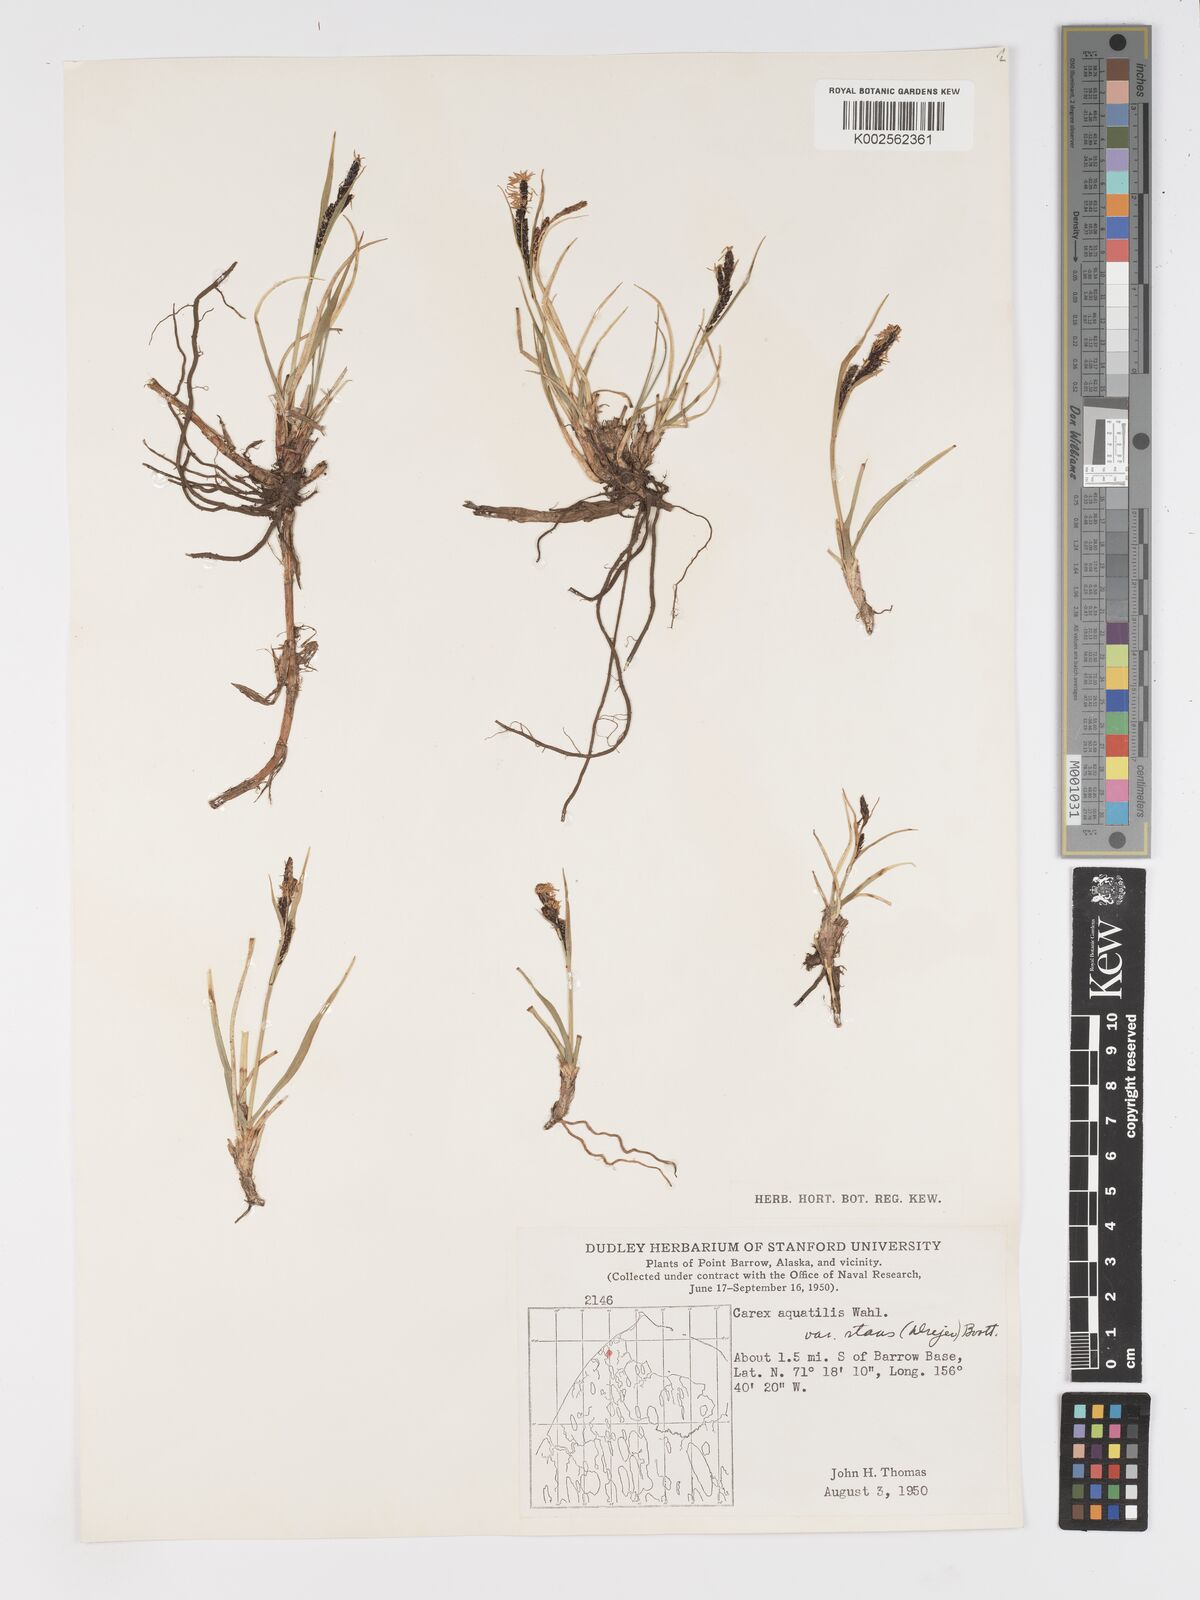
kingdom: Plantae
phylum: Tracheophyta
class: Liliopsida
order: Poales
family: Cyperaceae
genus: Carex
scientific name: Carex aquatilis
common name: Water sedge
